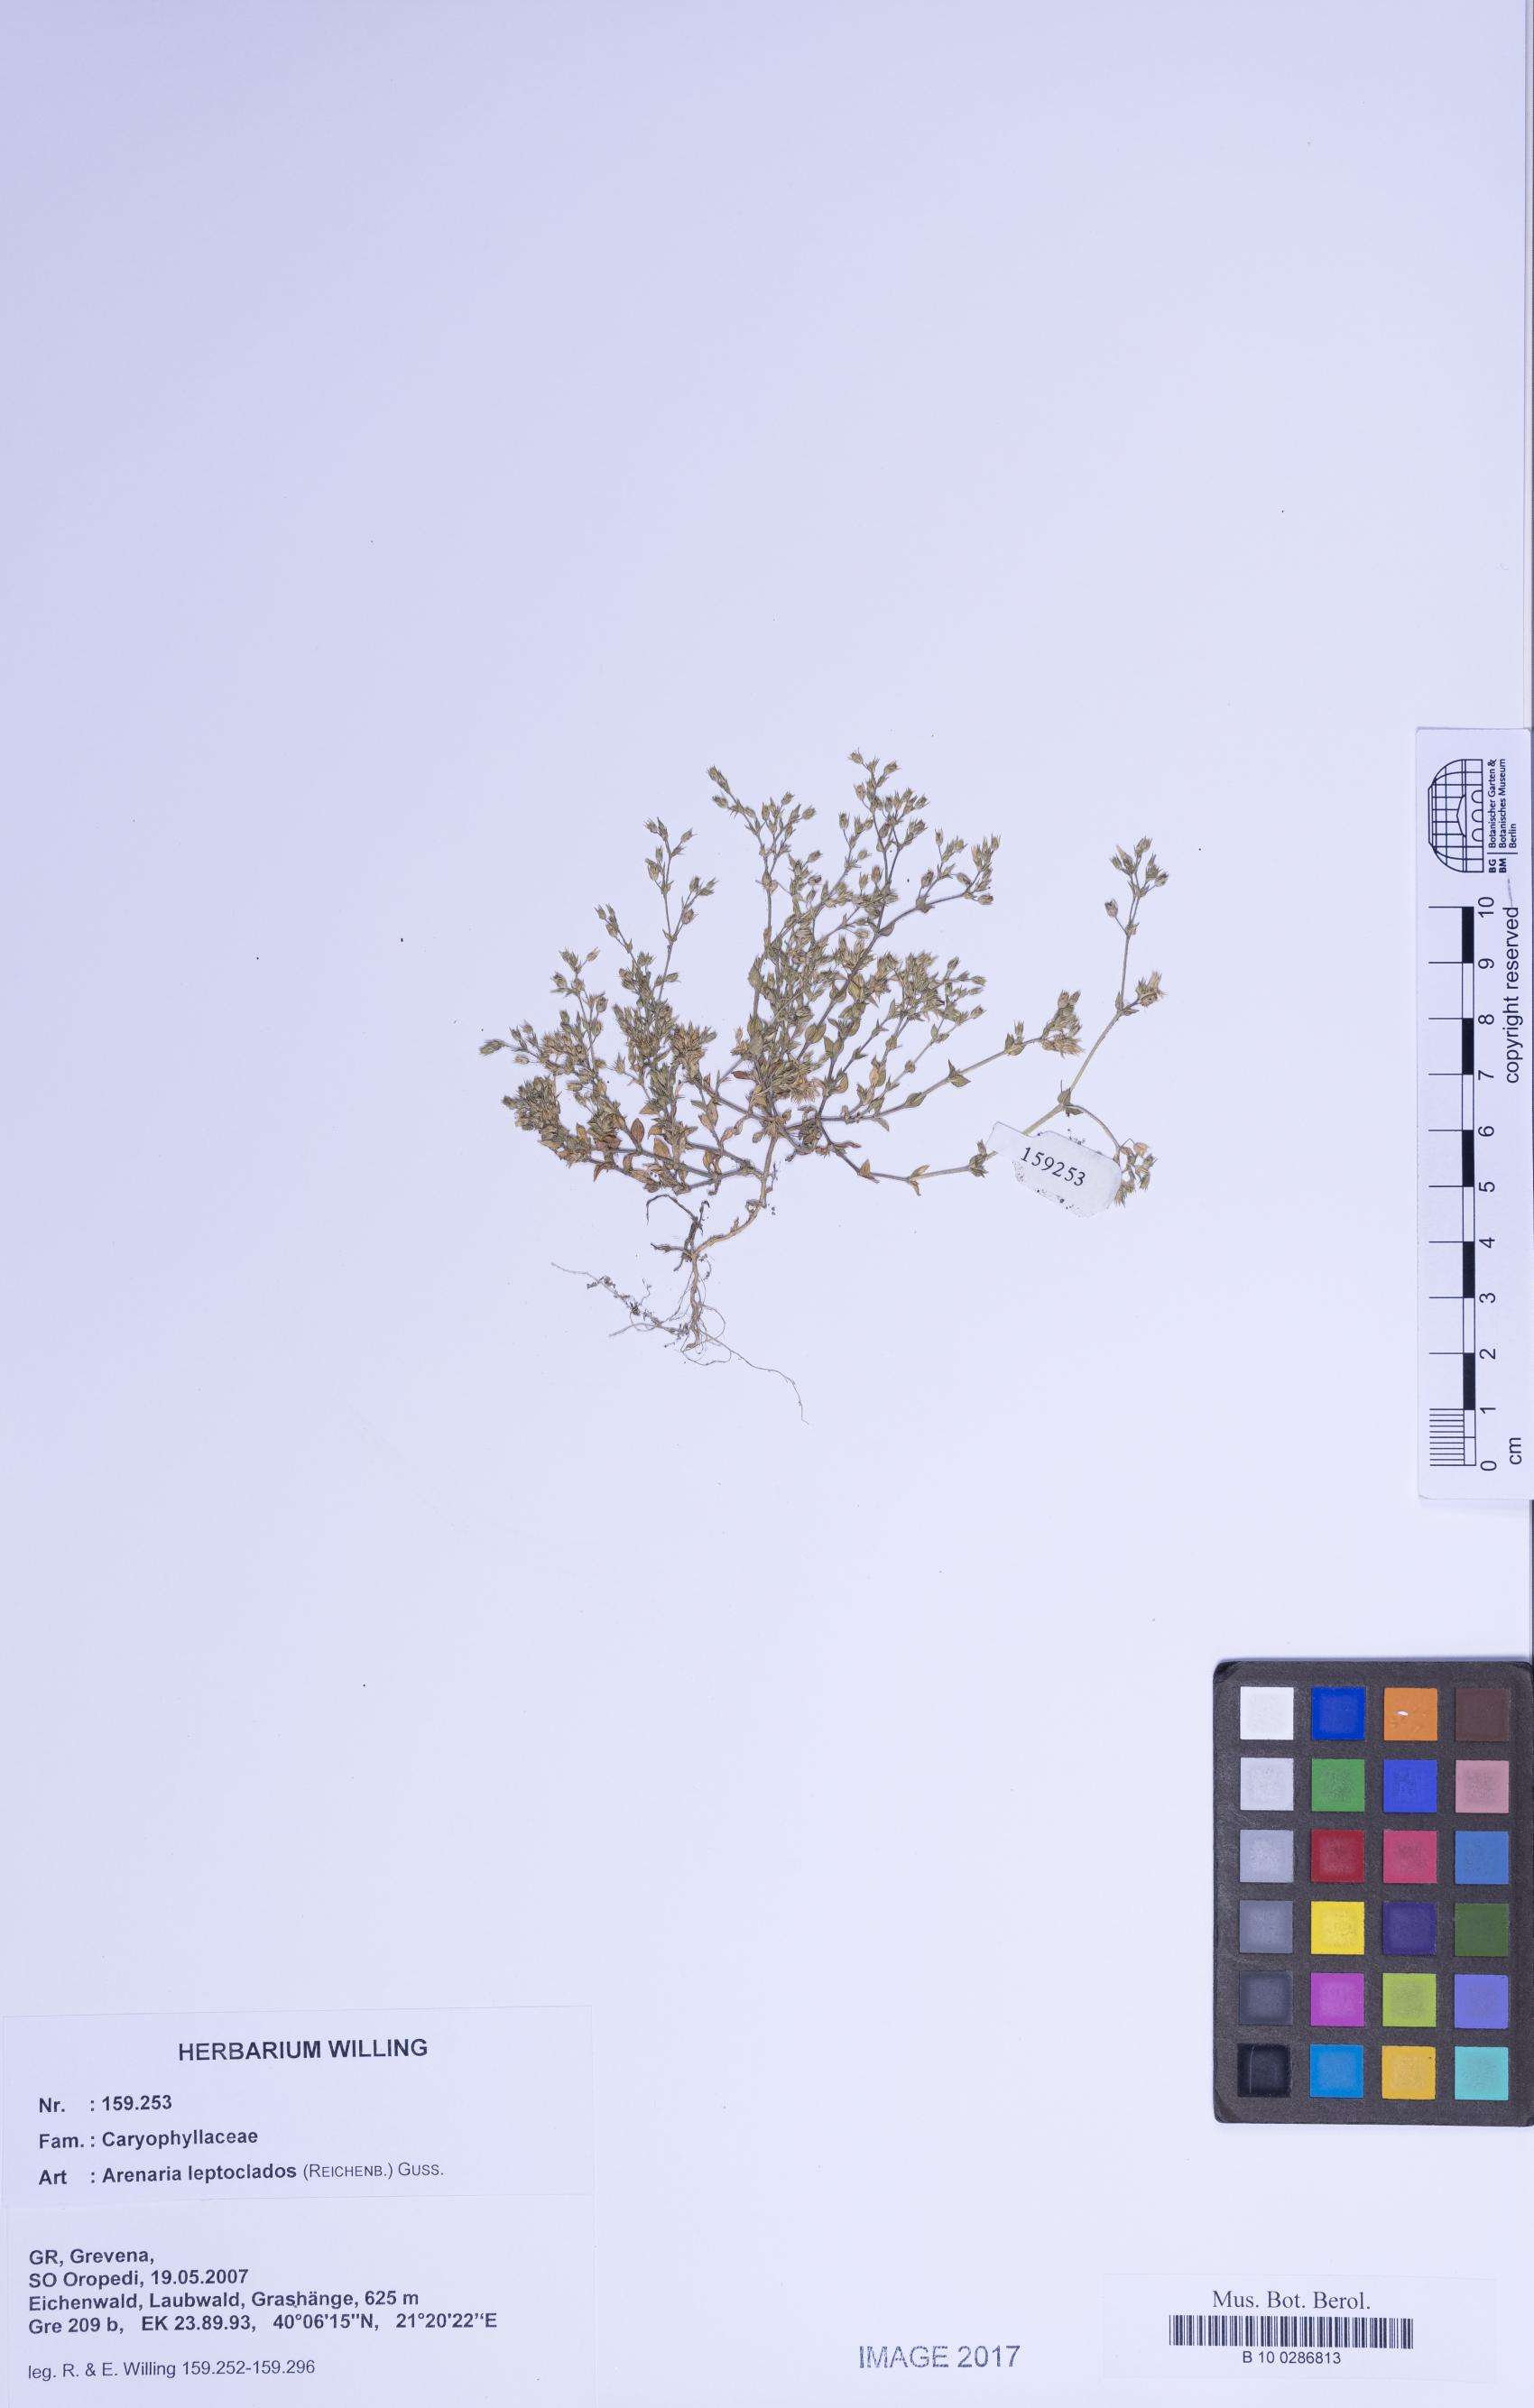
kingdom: Plantae
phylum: Tracheophyta
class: Magnoliopsida
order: Caryophyllales
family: Caryophyllaceae
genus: Arenaria
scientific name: Arenaria leptoclados
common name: Thyme-leaved sandwort
